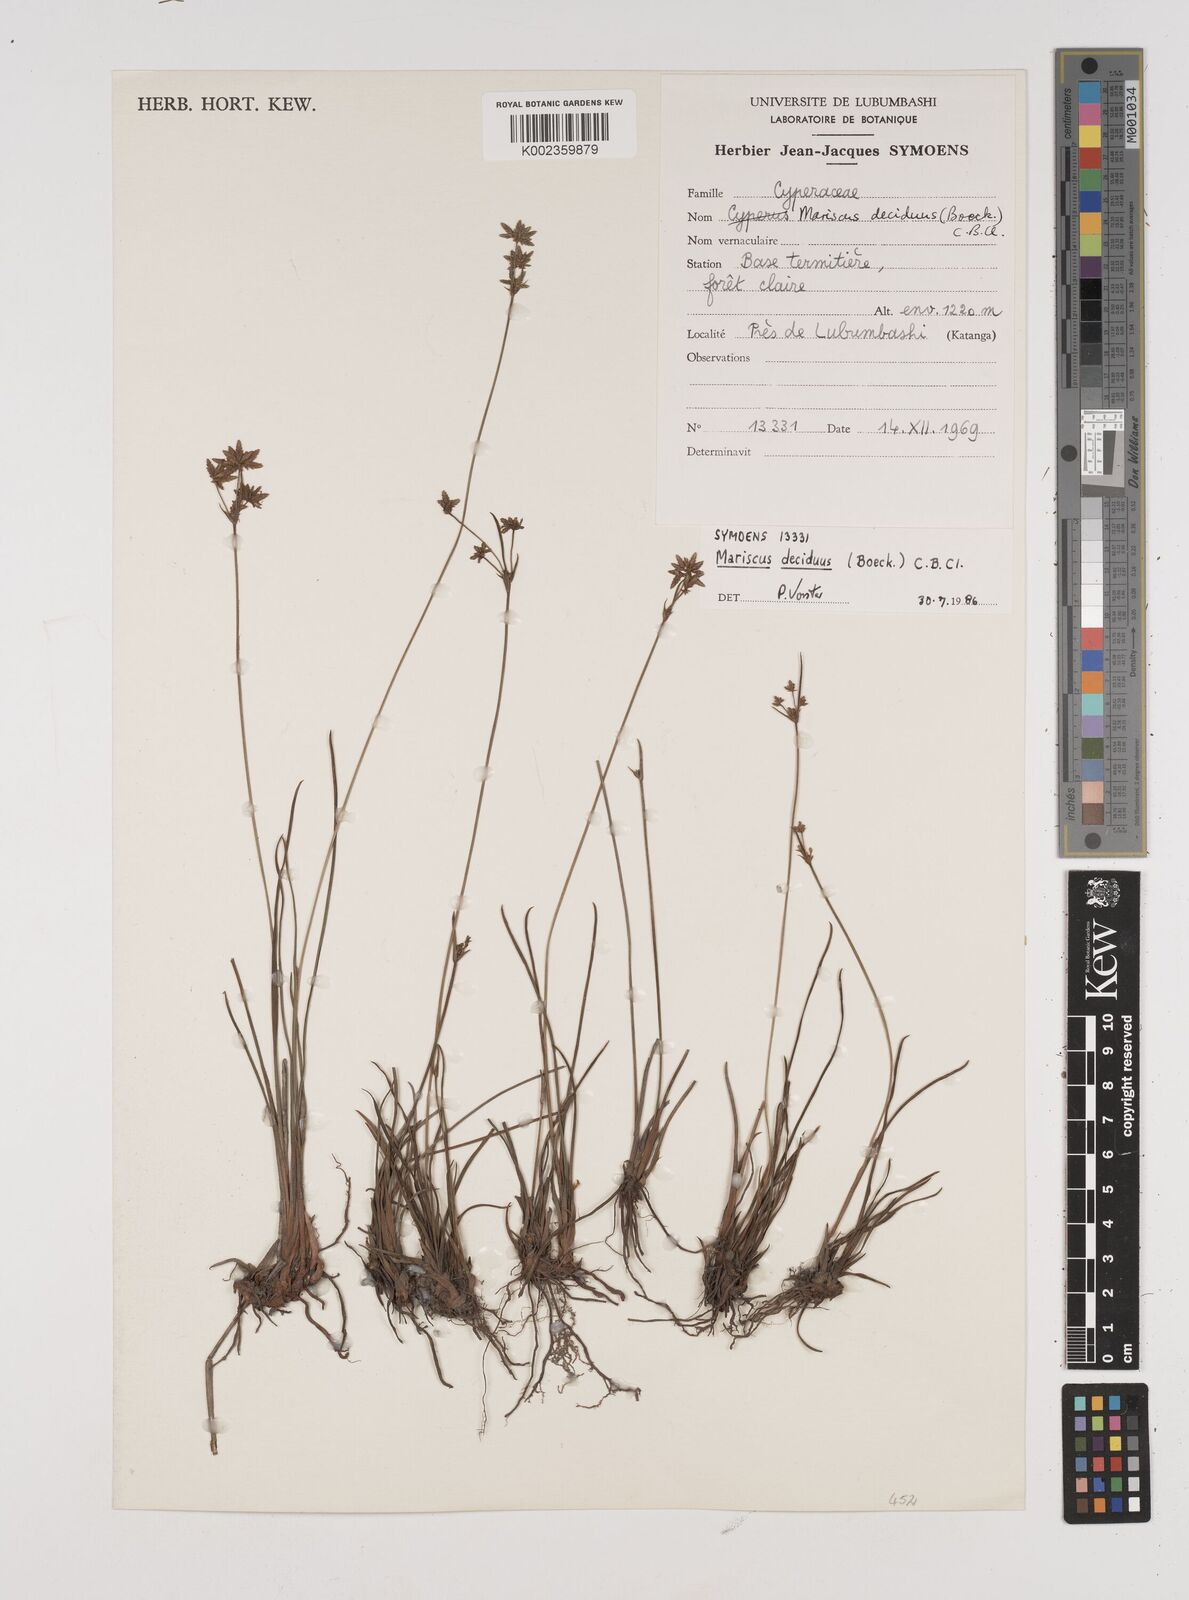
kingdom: Plantae
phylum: Tracheophyta
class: Liliopsida
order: Poales
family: Cyperaceae
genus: Cyperus
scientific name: Cyperus deciduus
